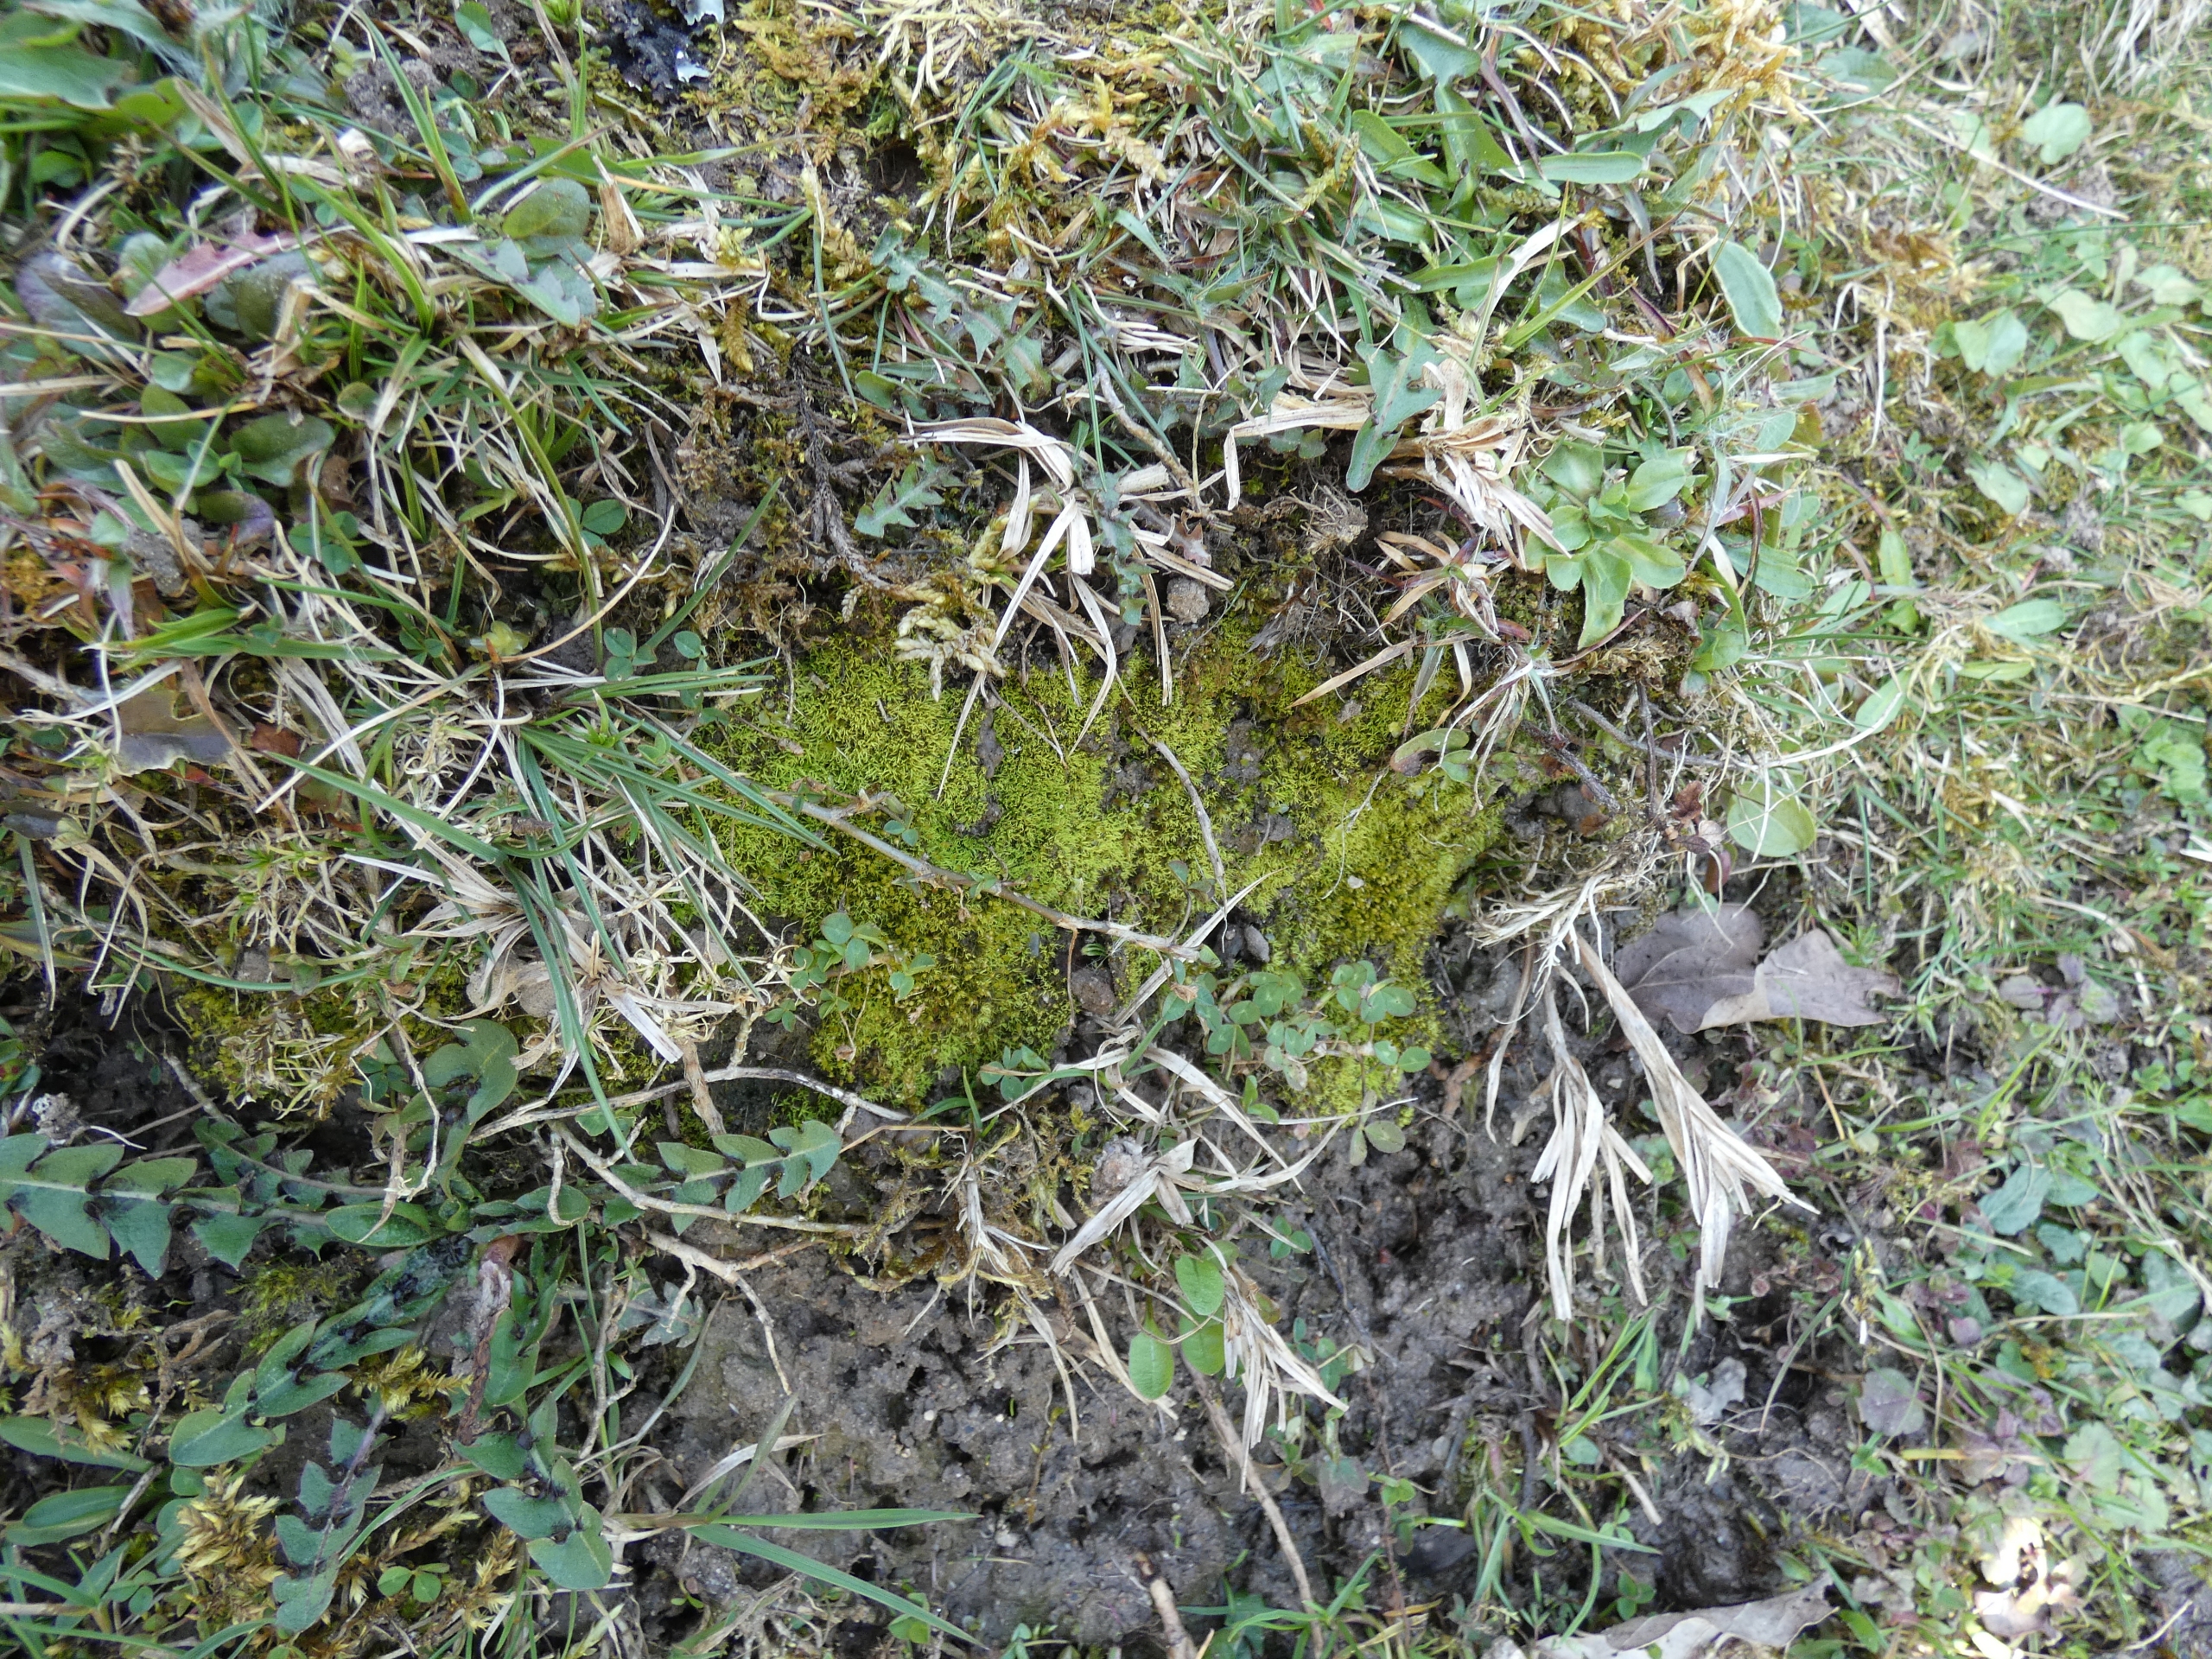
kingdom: Plantae
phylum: Bryophyta
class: Bryopsida
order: Pottiales
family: Pottiaceae
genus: Weissia
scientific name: Weissia
